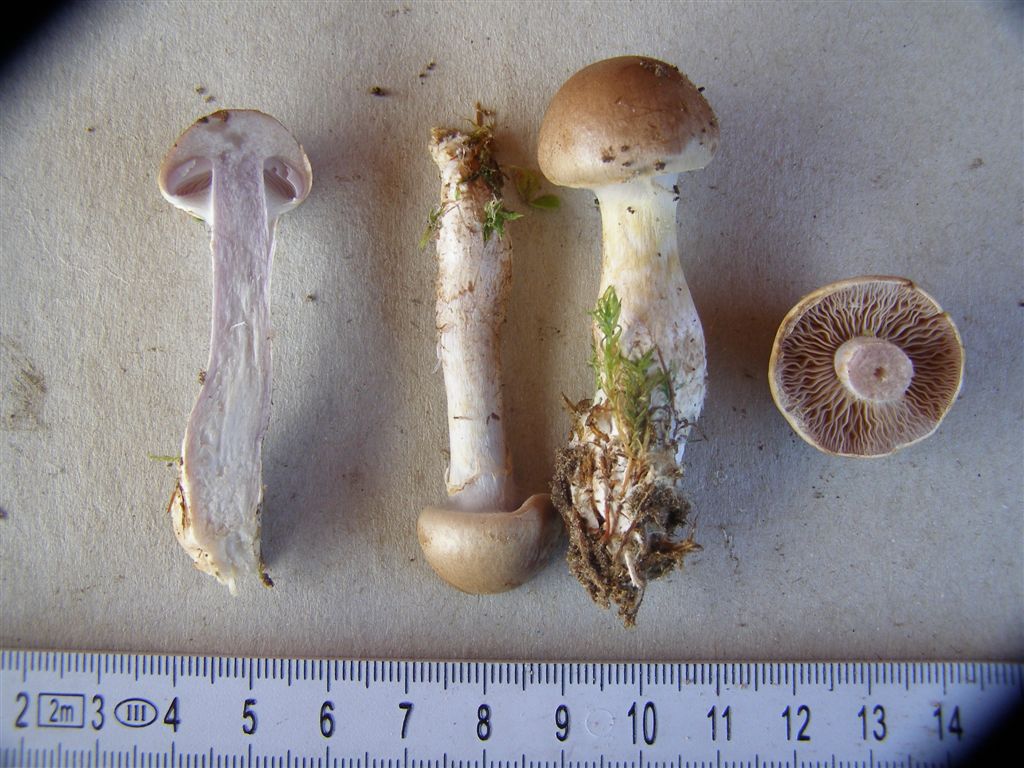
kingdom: Fungi
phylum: Basidiomycota
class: Agaricomycetes
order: Agaricales
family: Cortinariaceae
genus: Cortinarius
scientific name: Cortinarius caninus
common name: gran-slørhat
